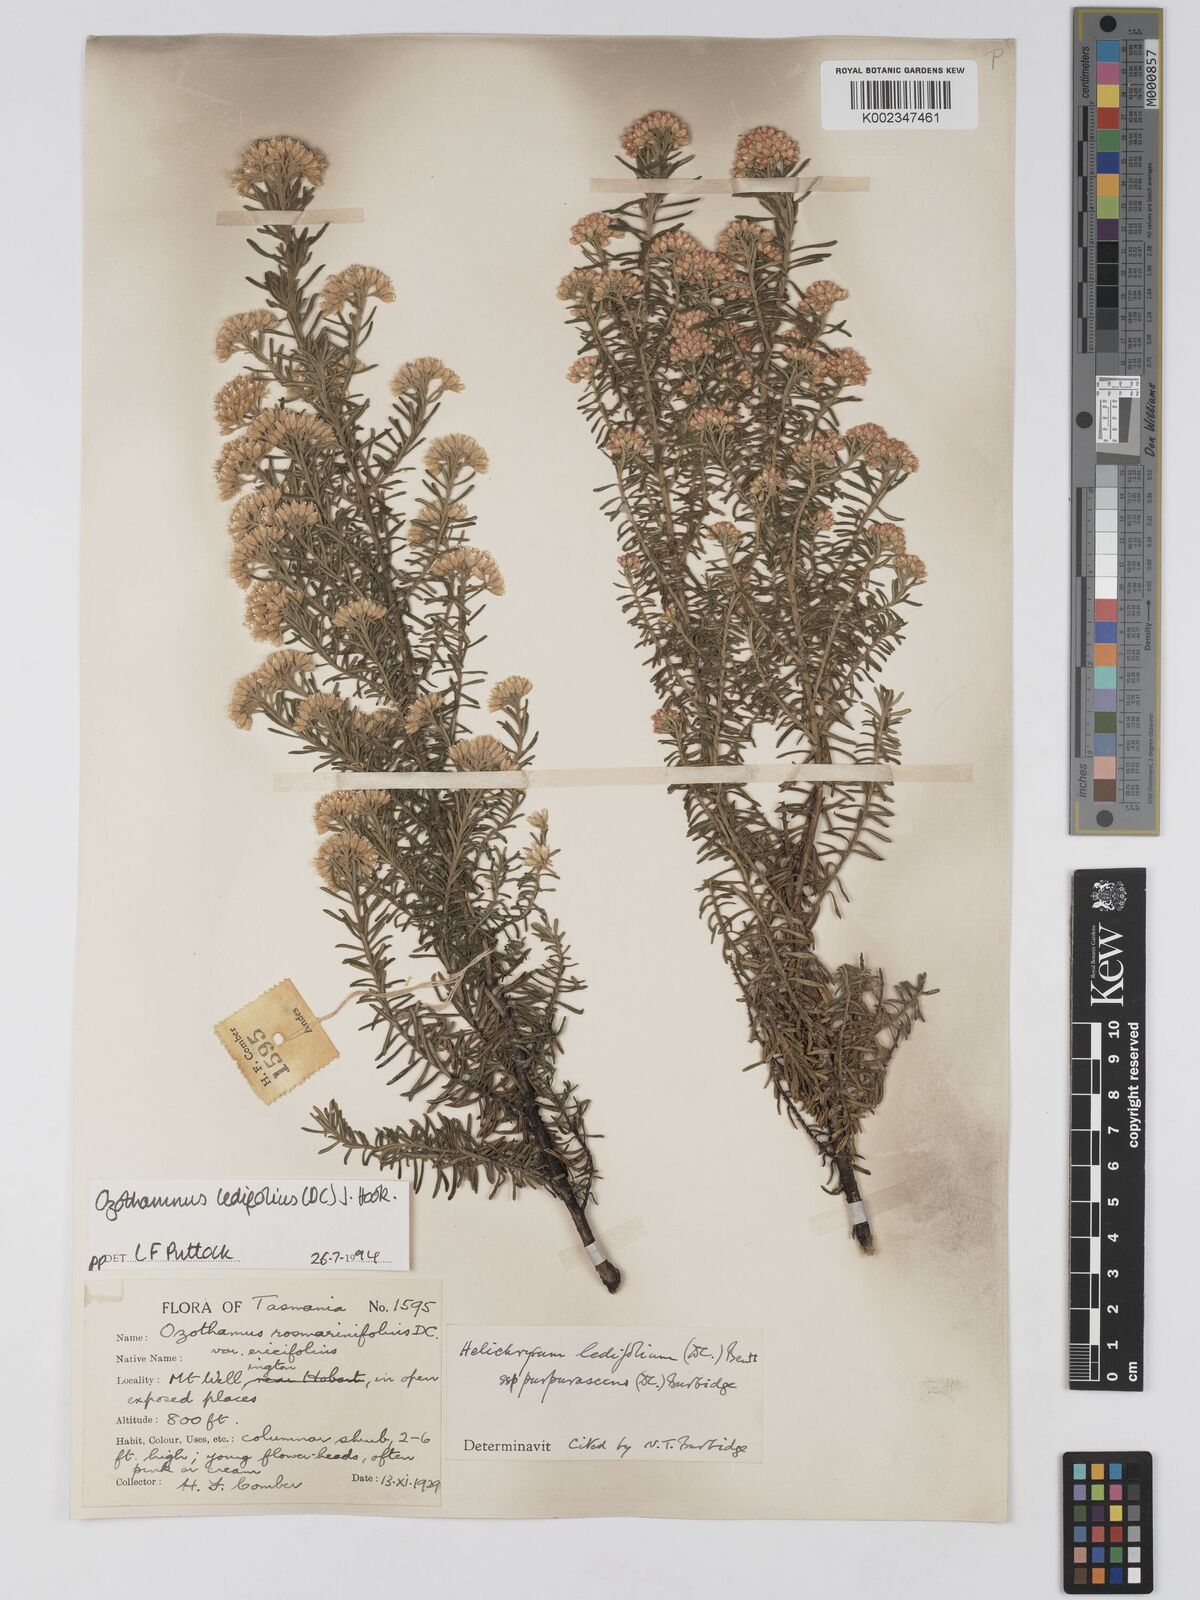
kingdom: Plantae
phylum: Tracheophyta
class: Magnoliopsida
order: Asterales
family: Asteraceae
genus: Ozothamnus
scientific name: Ozothamnus ledifolius
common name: Kerosene-weed
